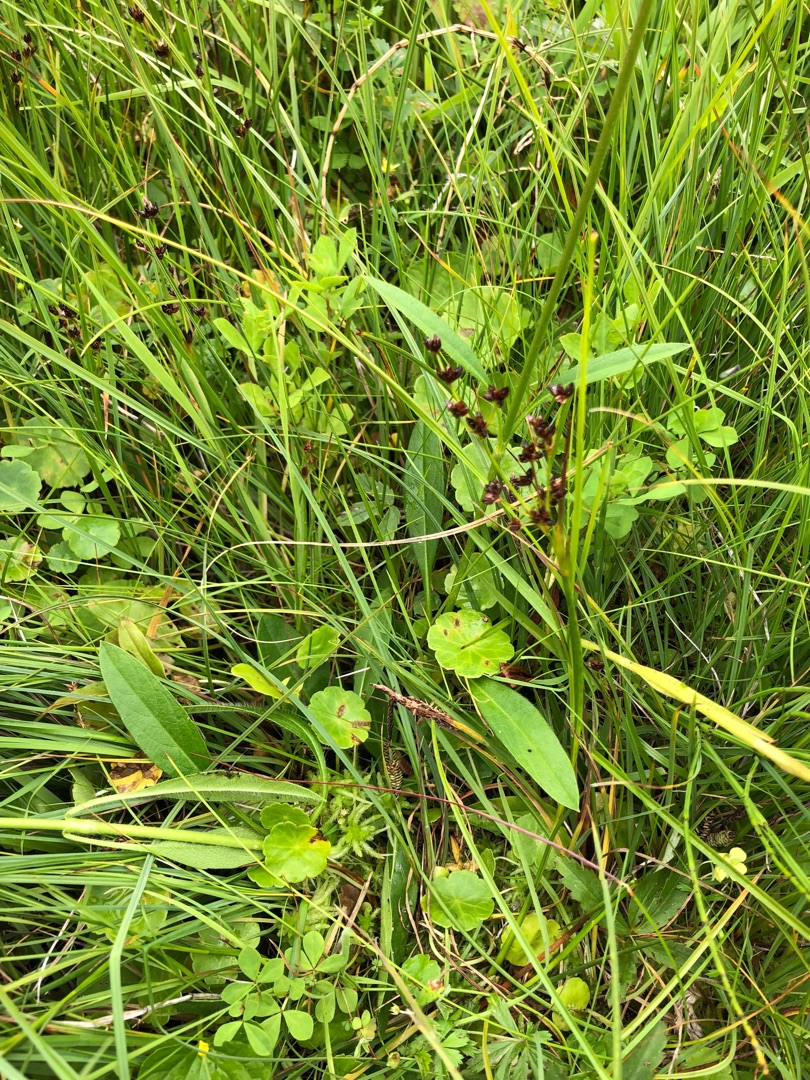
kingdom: Plantae
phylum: Tracheophyta
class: Magnoliopsida
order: Dipsacales
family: Caprifoliaceae
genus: Succisa
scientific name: Succisa pratensis
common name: Djævelsbid
